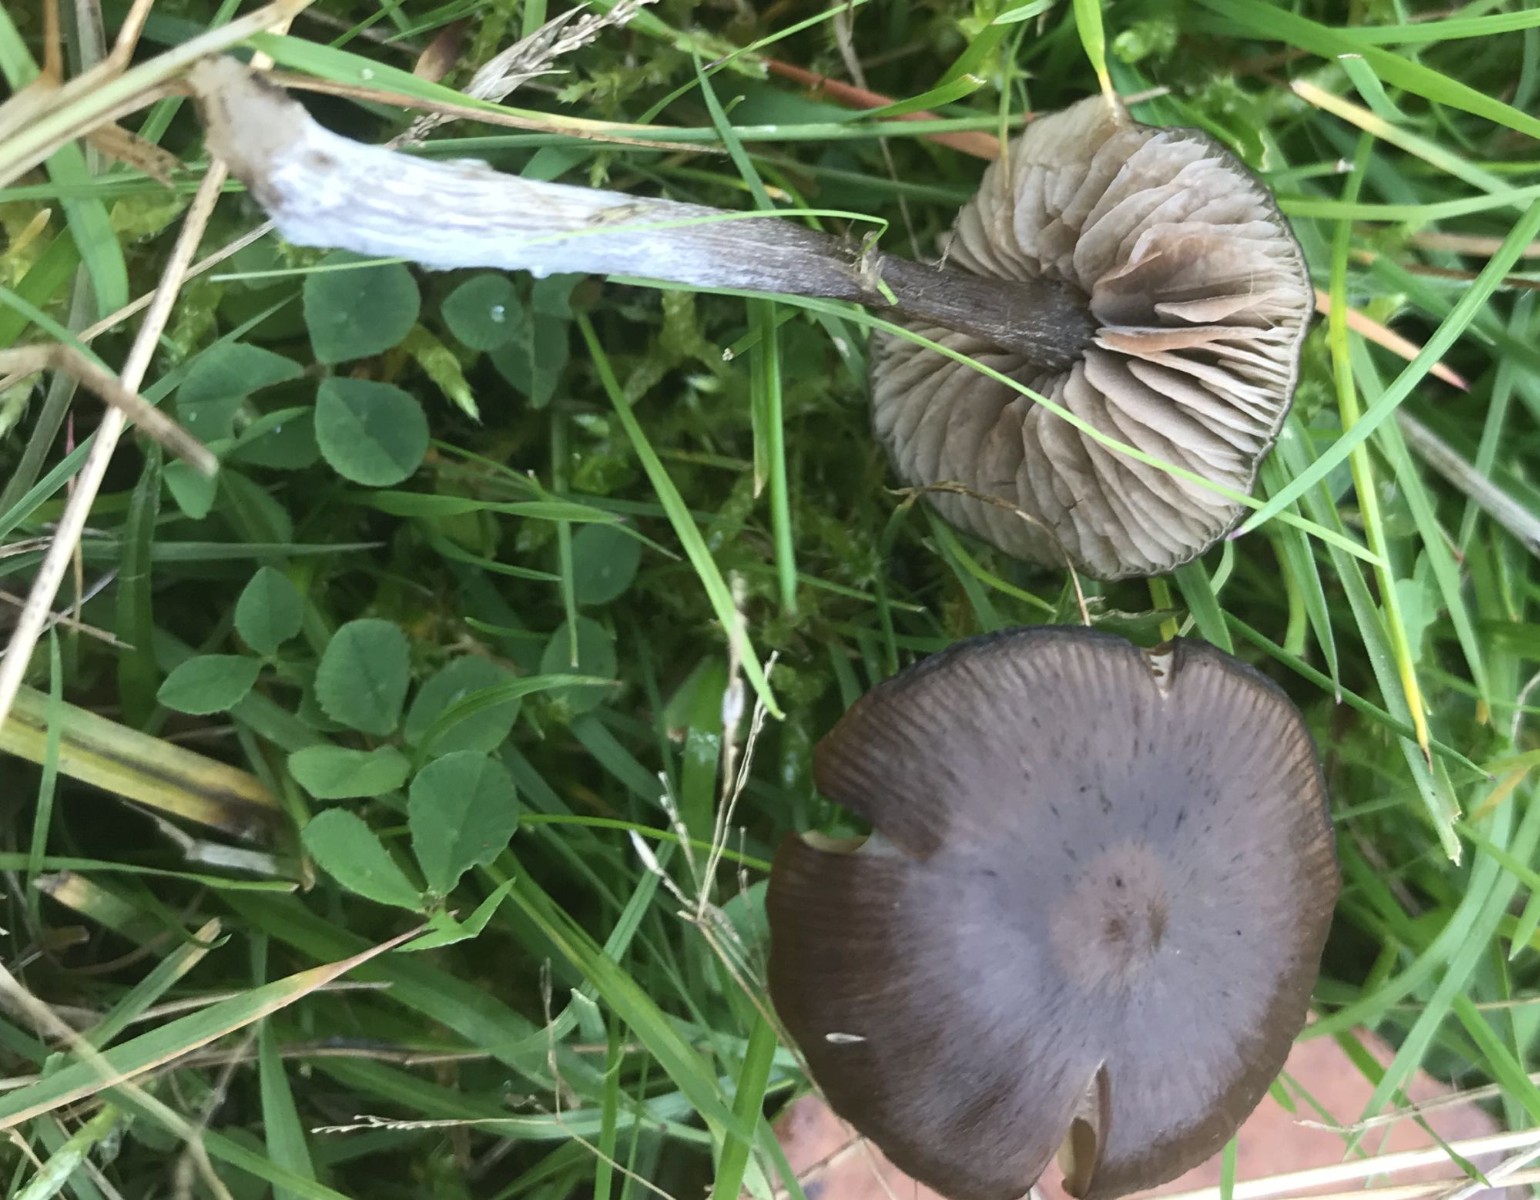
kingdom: Fungi
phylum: Basidiomycota
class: Agaricomycetes
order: Agaricales
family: Entolomataceae
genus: Entoloma
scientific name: Entoloma
